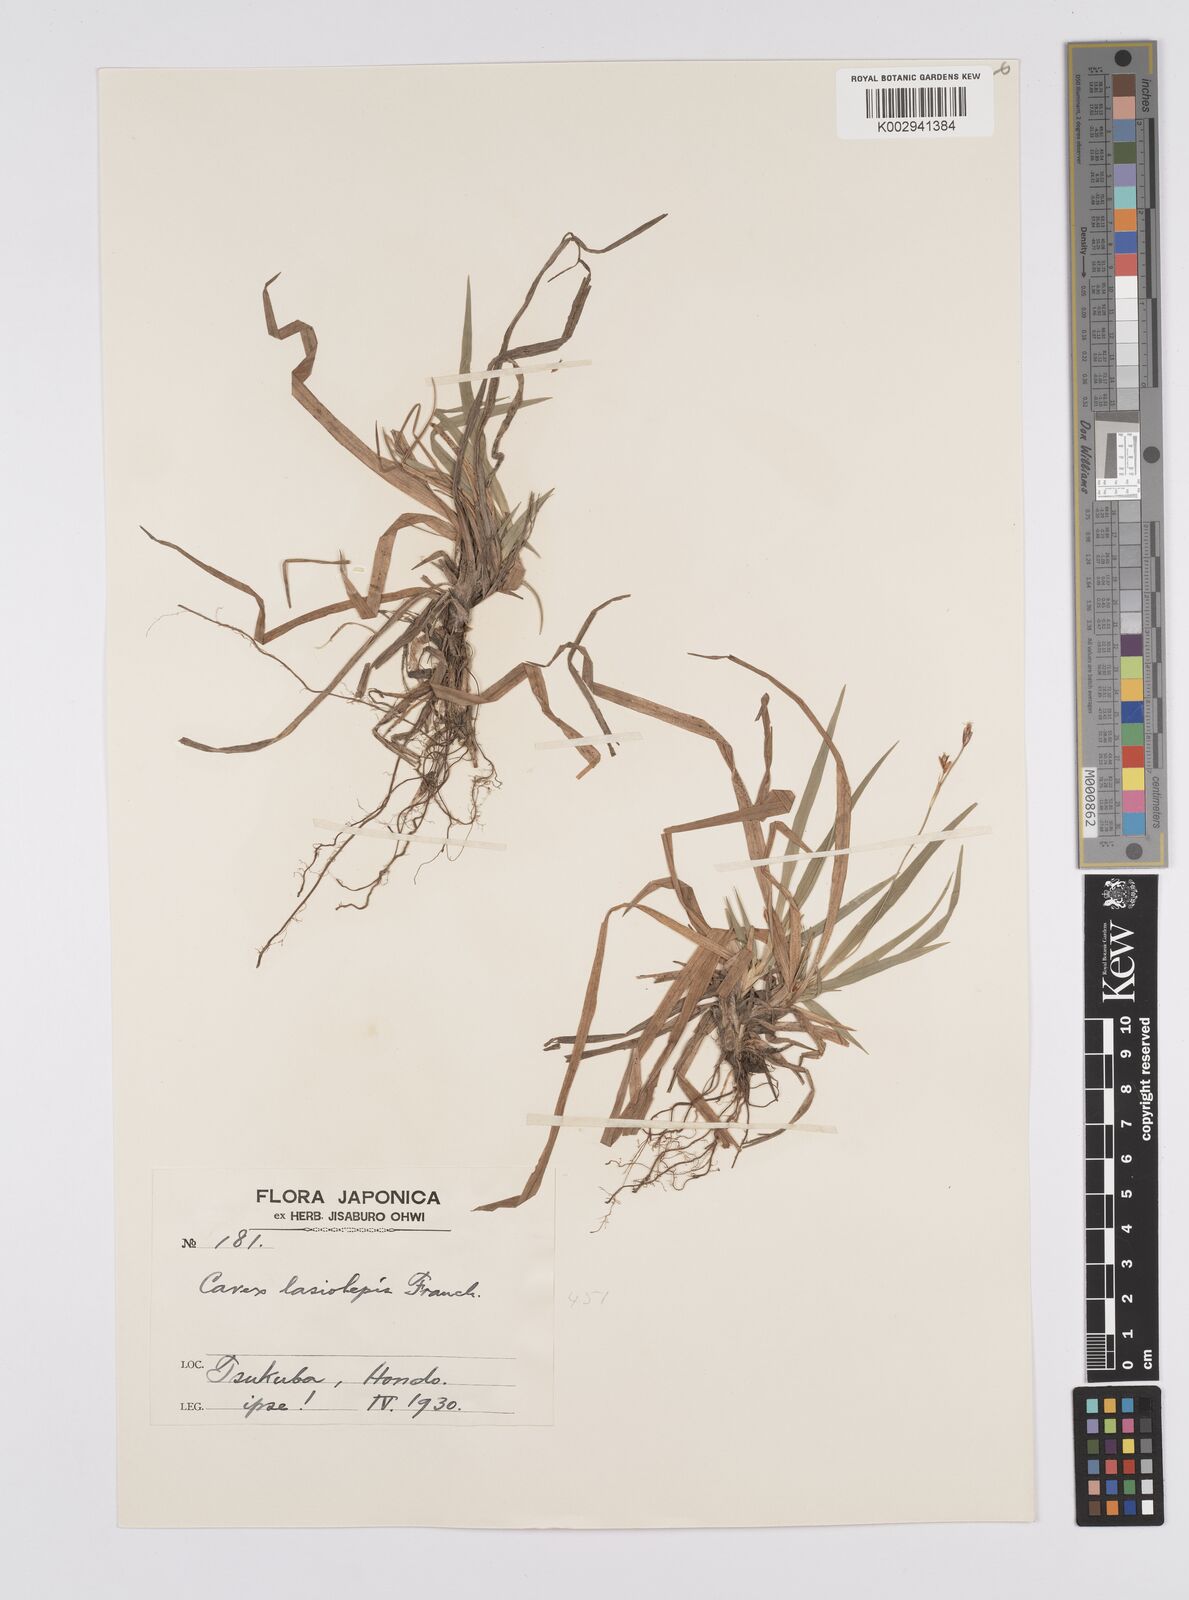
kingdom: Plantae
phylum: Tracheophyta
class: Liliopsida
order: Poales
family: Cyperaceae
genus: Carex
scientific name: Carex lasiolepis
